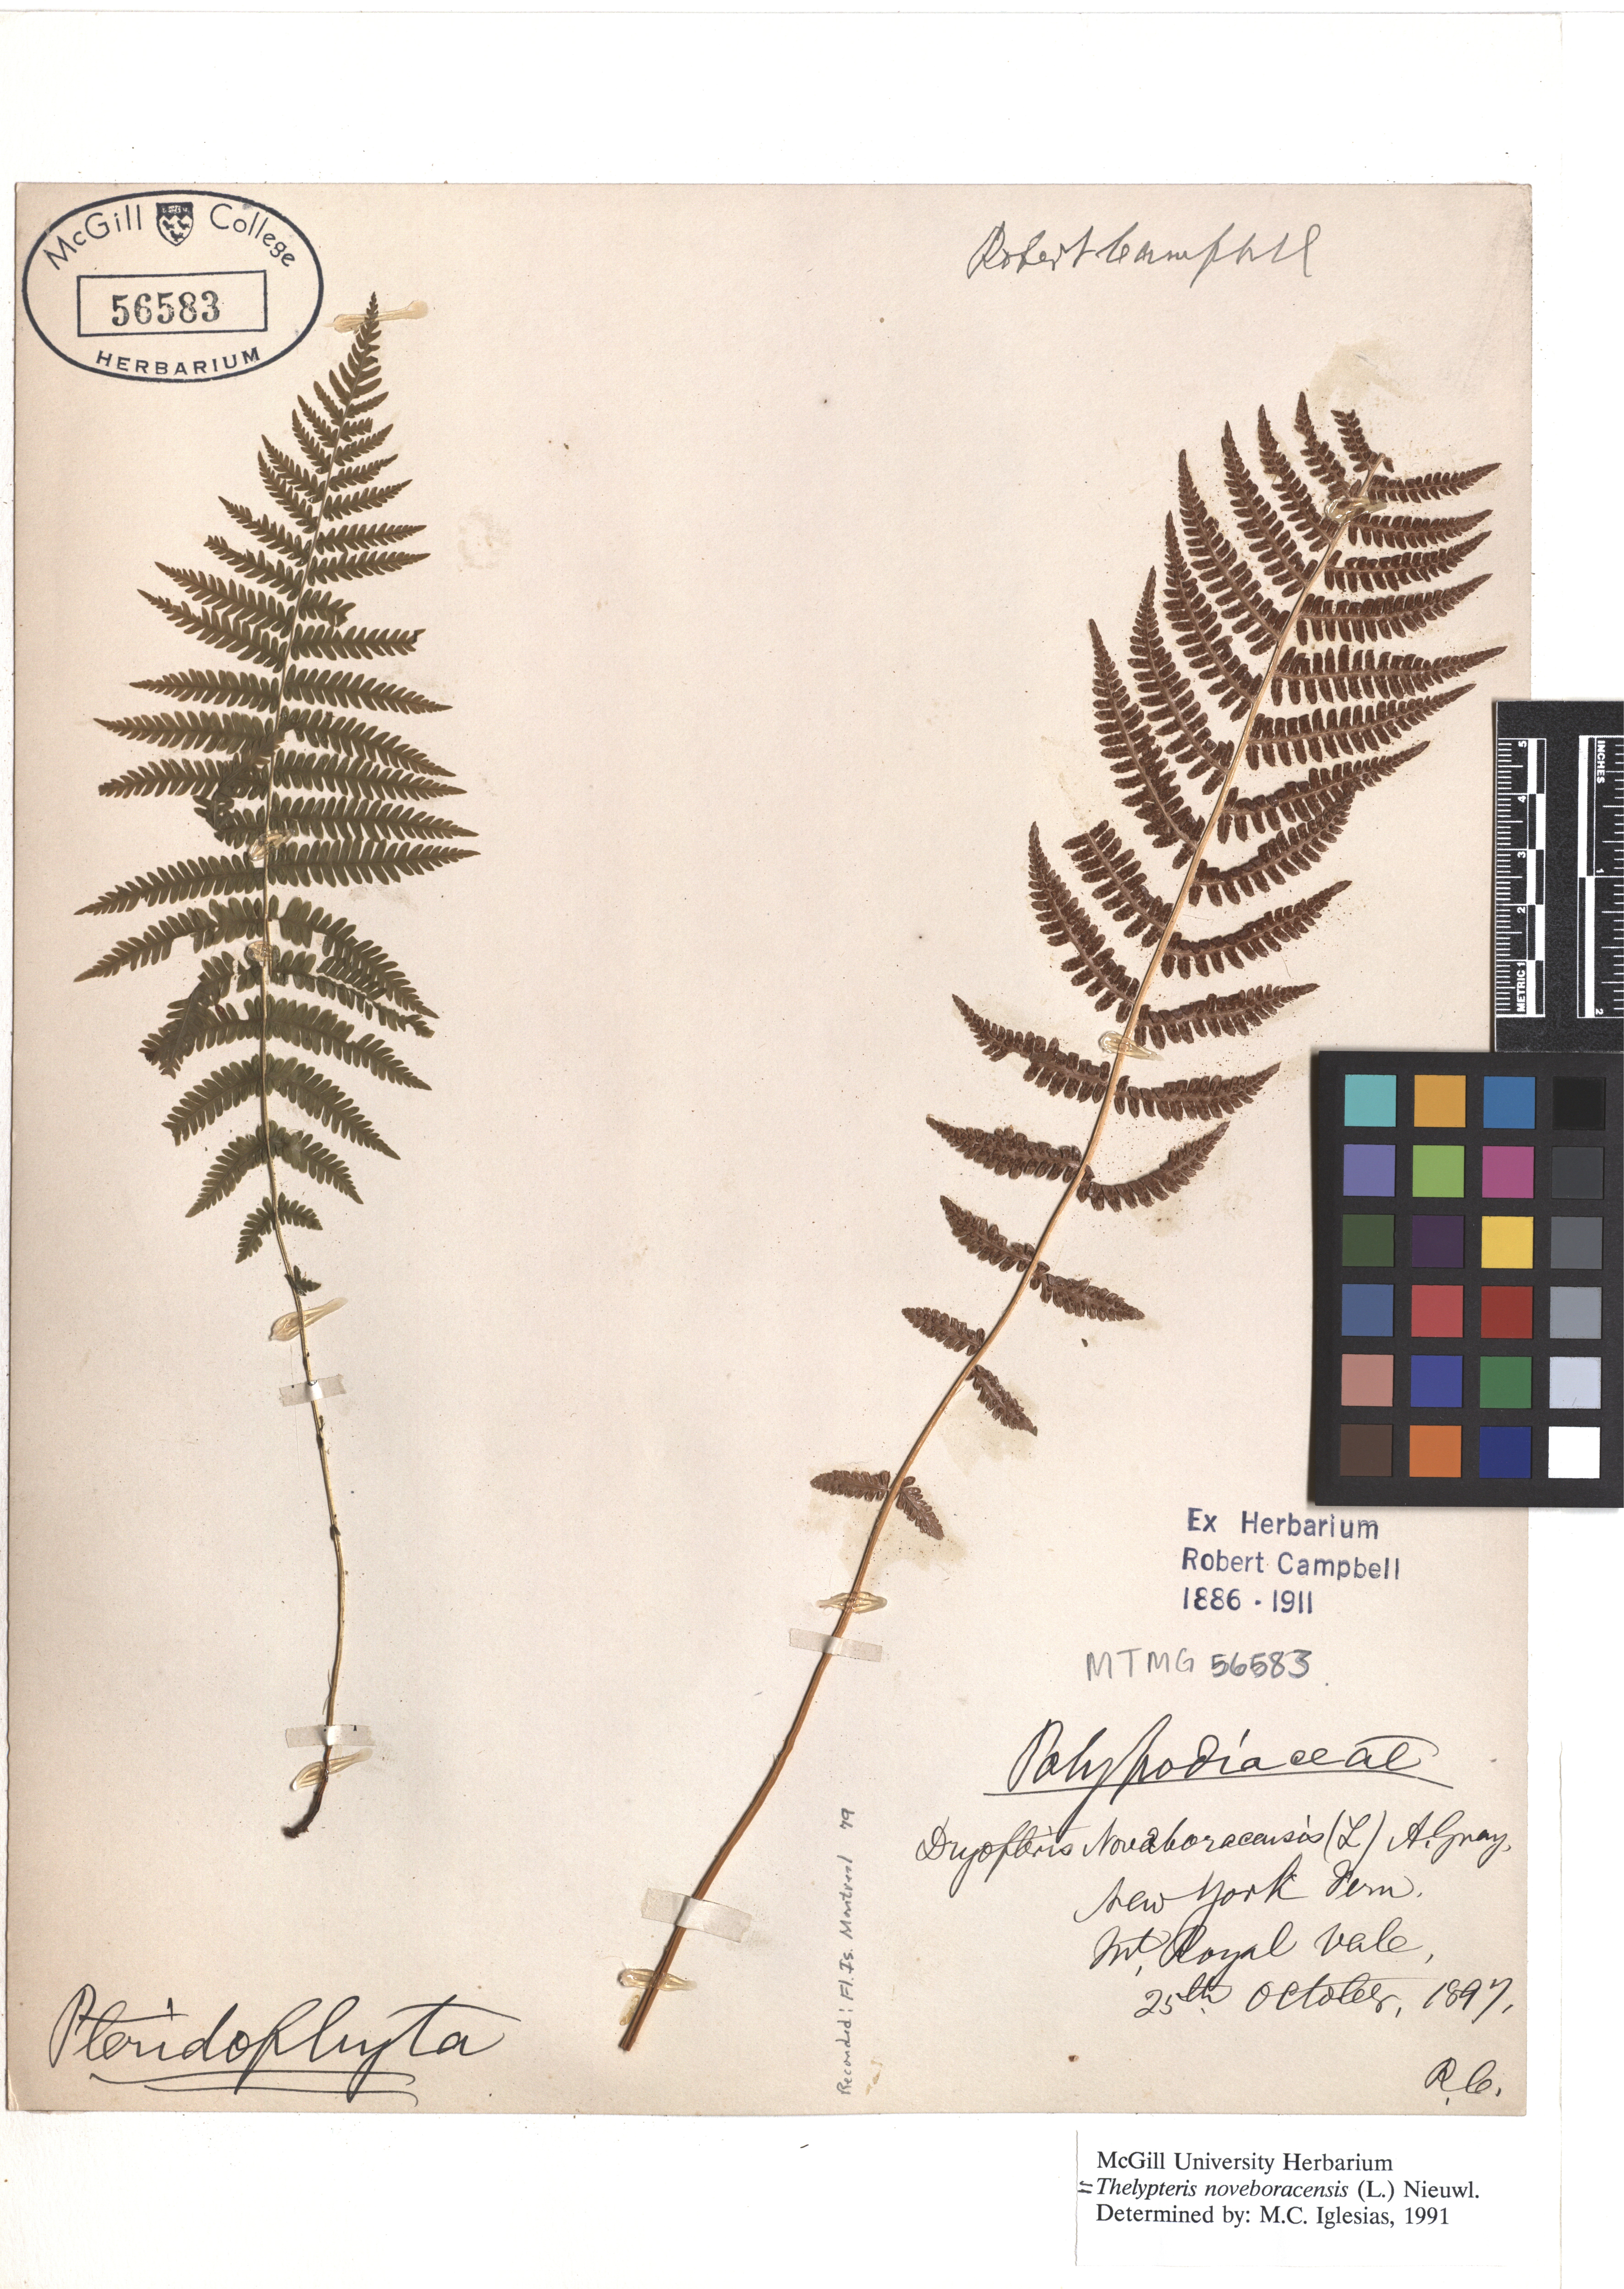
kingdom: Plantae
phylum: Tracheophyta
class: Polypodiopsida
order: Polypodiales
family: Thelypteridaceae
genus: Amauropelta
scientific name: Amauropelta noveboracensis
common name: New york fern
